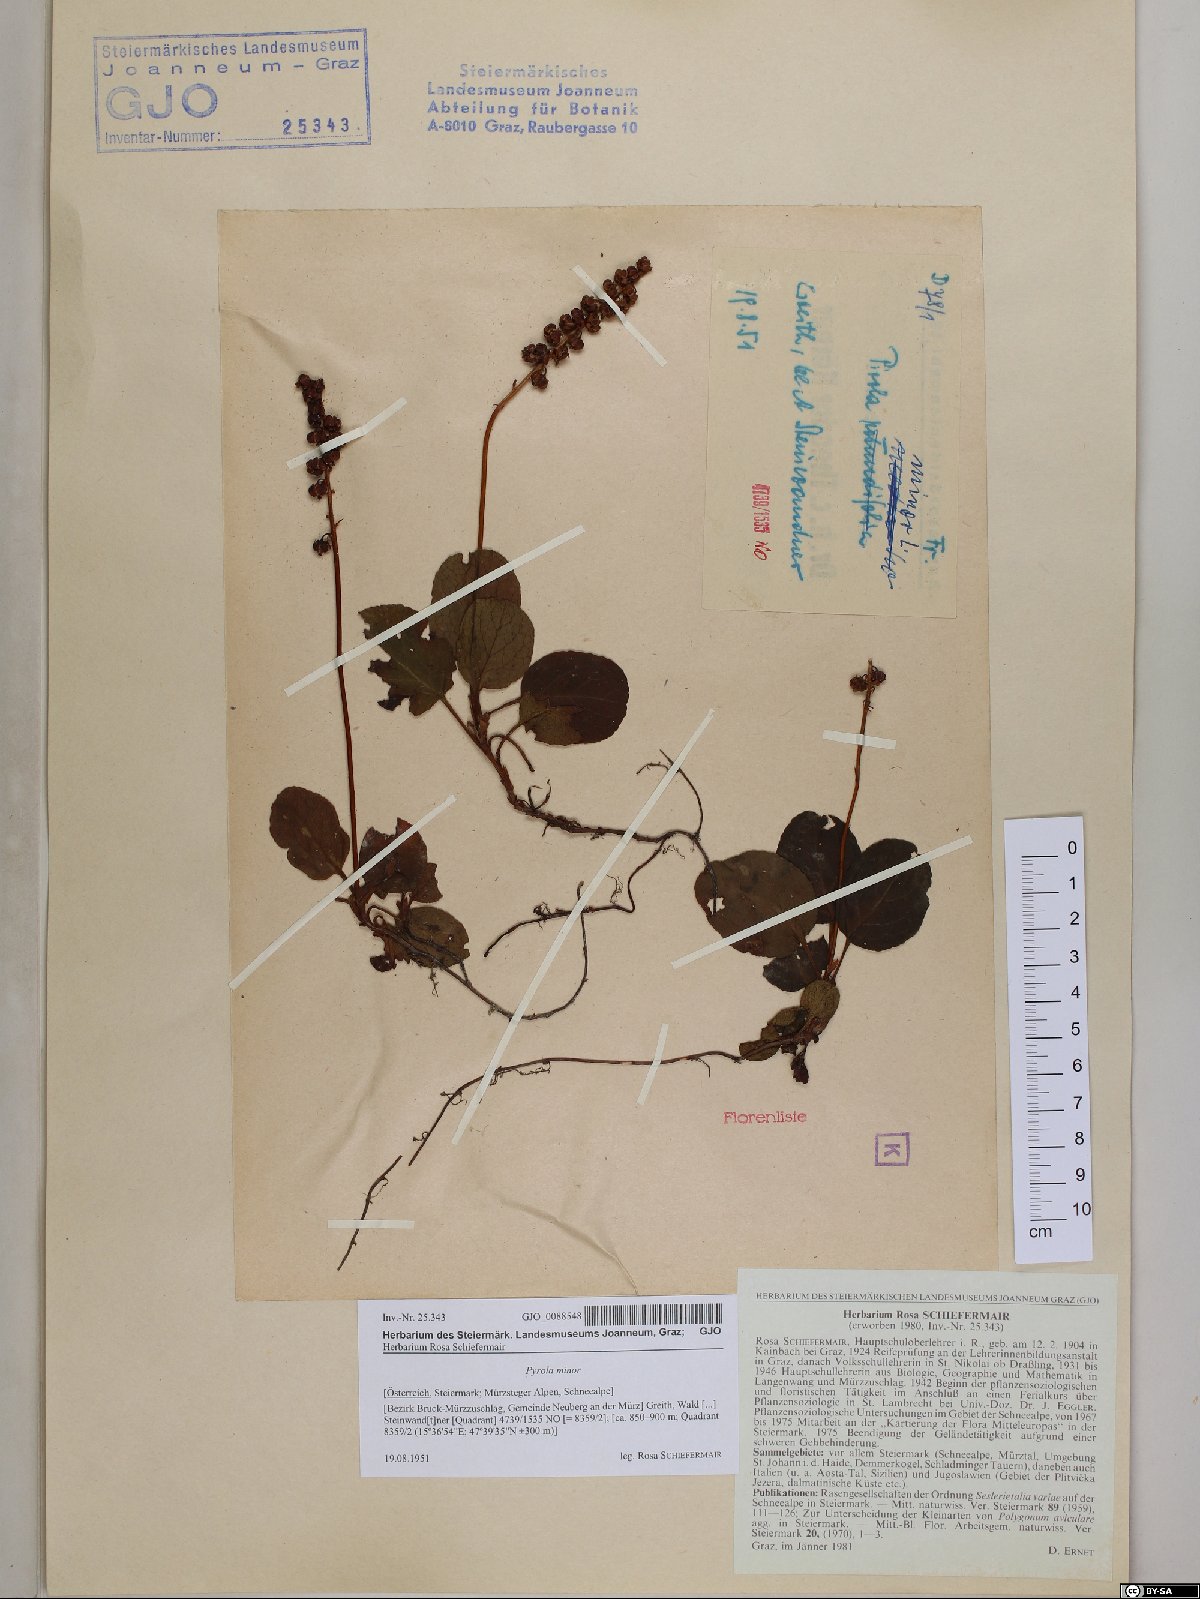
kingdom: Plantae
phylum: Tracheophyta
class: Magnoliopsida
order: Ericales
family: Ericaceae
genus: Pyrola
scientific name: Pyrola minor
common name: Common wintergreen
